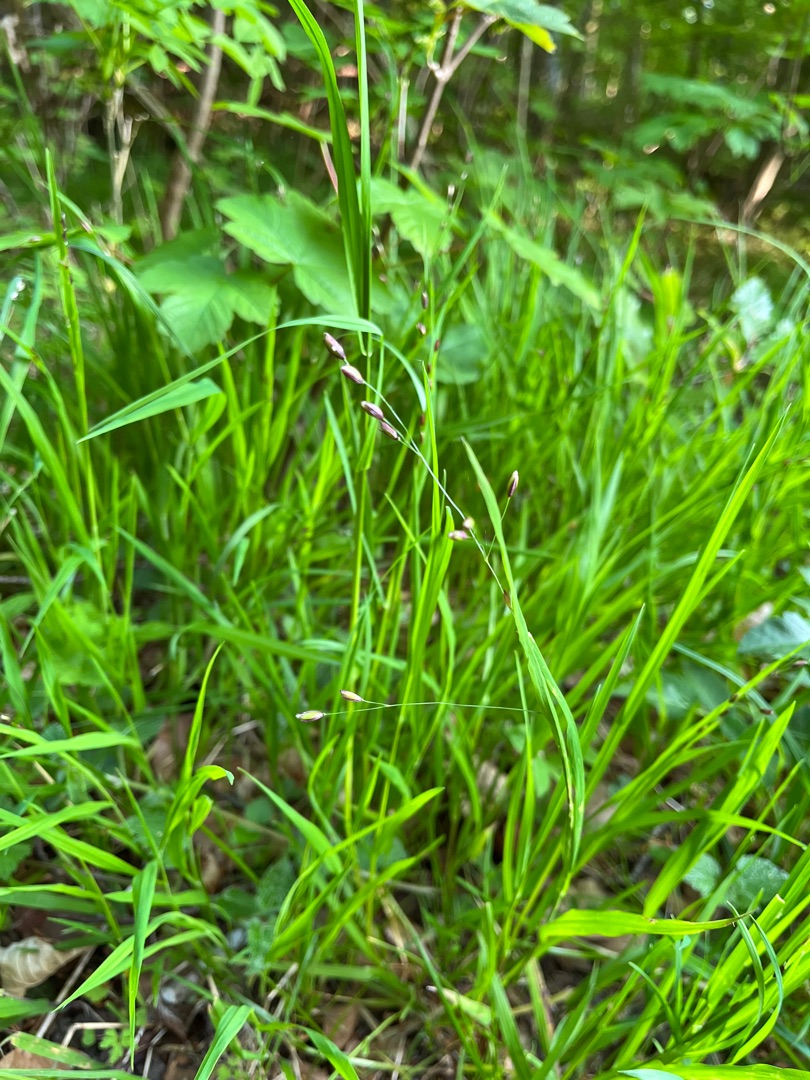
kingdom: Plantae
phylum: Tracheophyta
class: Liliopsida
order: Poales
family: Poaceae
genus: Melica
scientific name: Melica uniflora
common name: Enblomstret flitteraks
